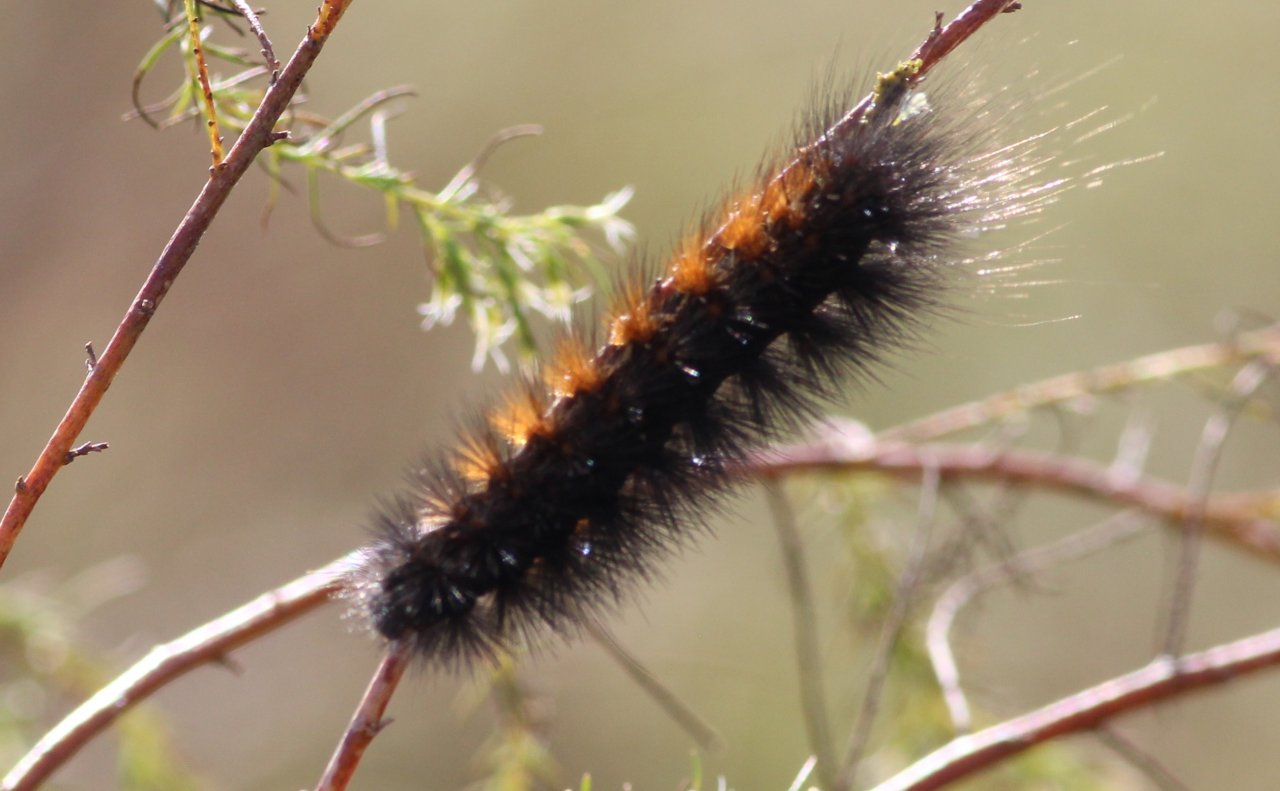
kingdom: Animalia
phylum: Arthropoda
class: Insecta
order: Lepidoptera
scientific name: Lepidoptera
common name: Butterflies
